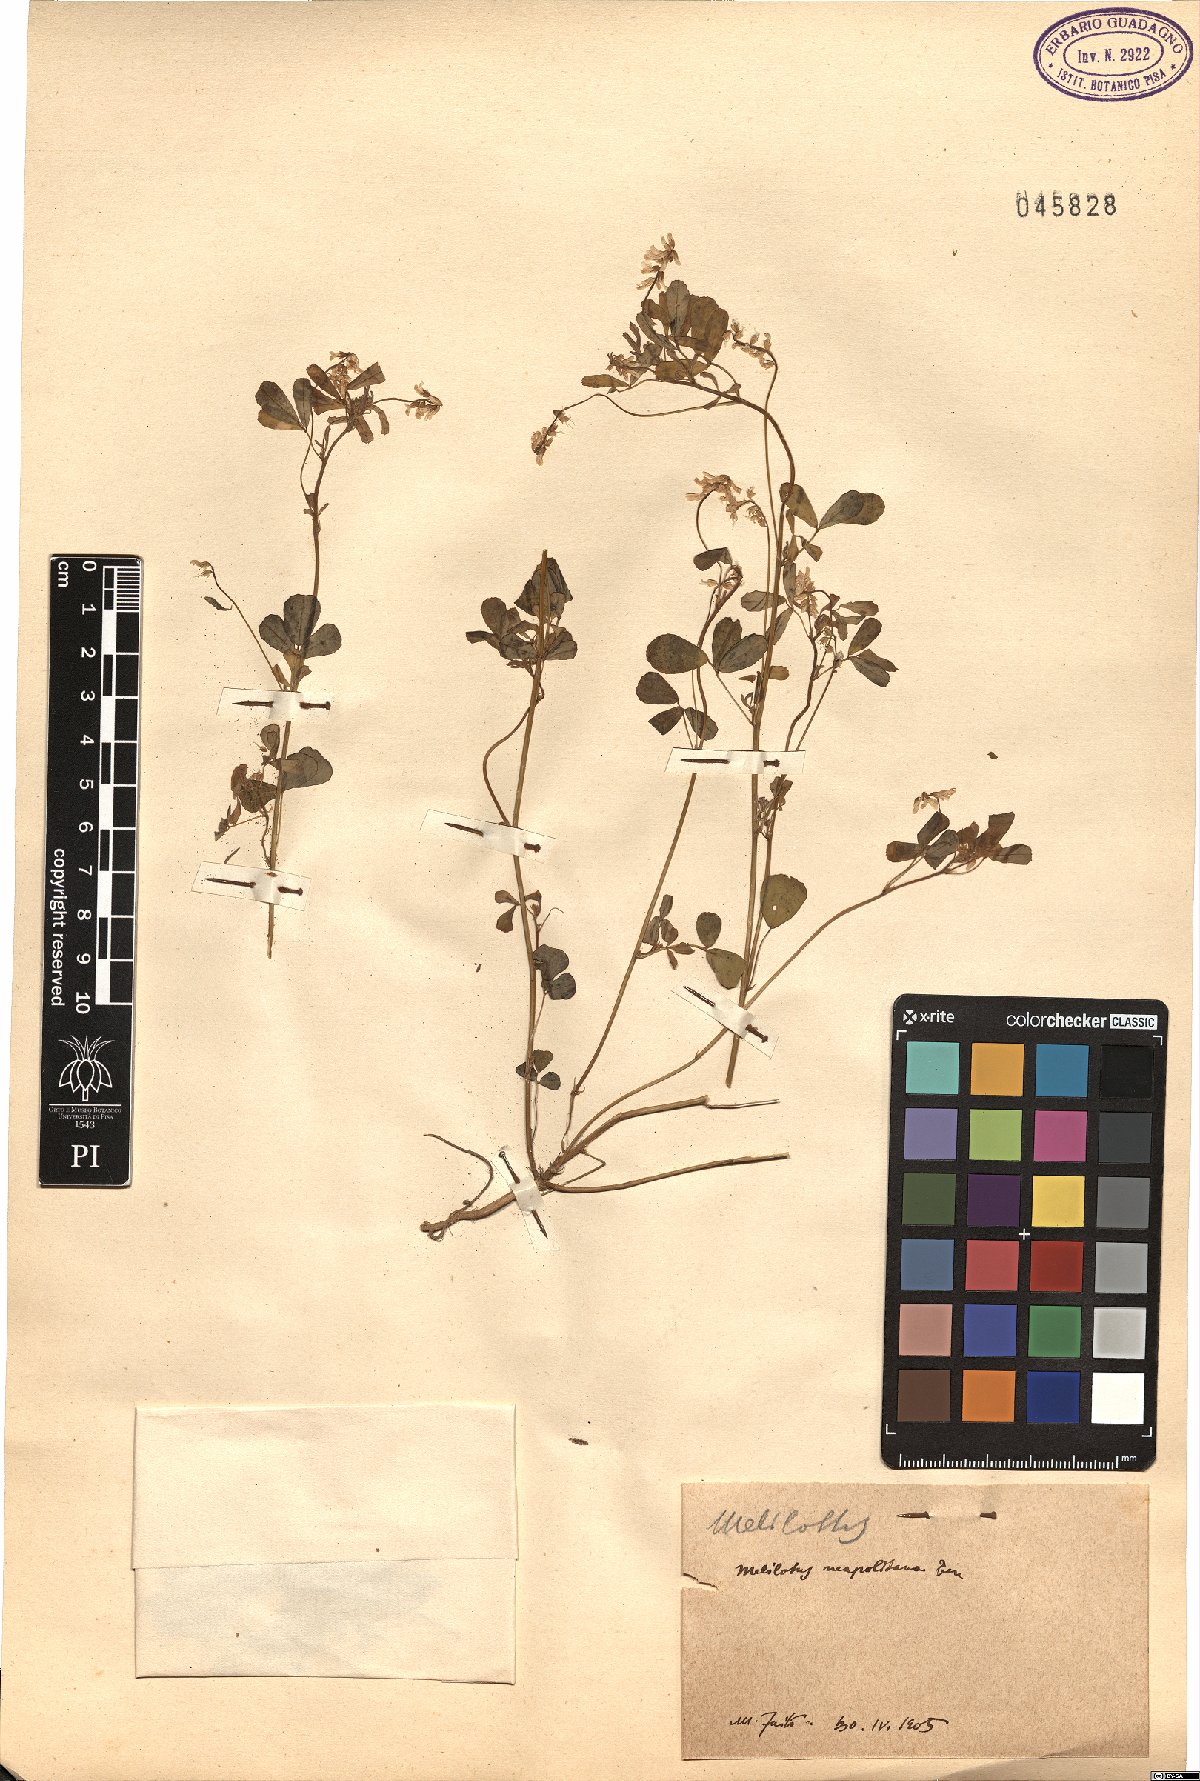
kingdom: Plantae
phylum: Tracheophyta
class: Magnoliopsida
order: Fabales
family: Fabaceae
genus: Melilotus
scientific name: Melilotus neapolitanus
